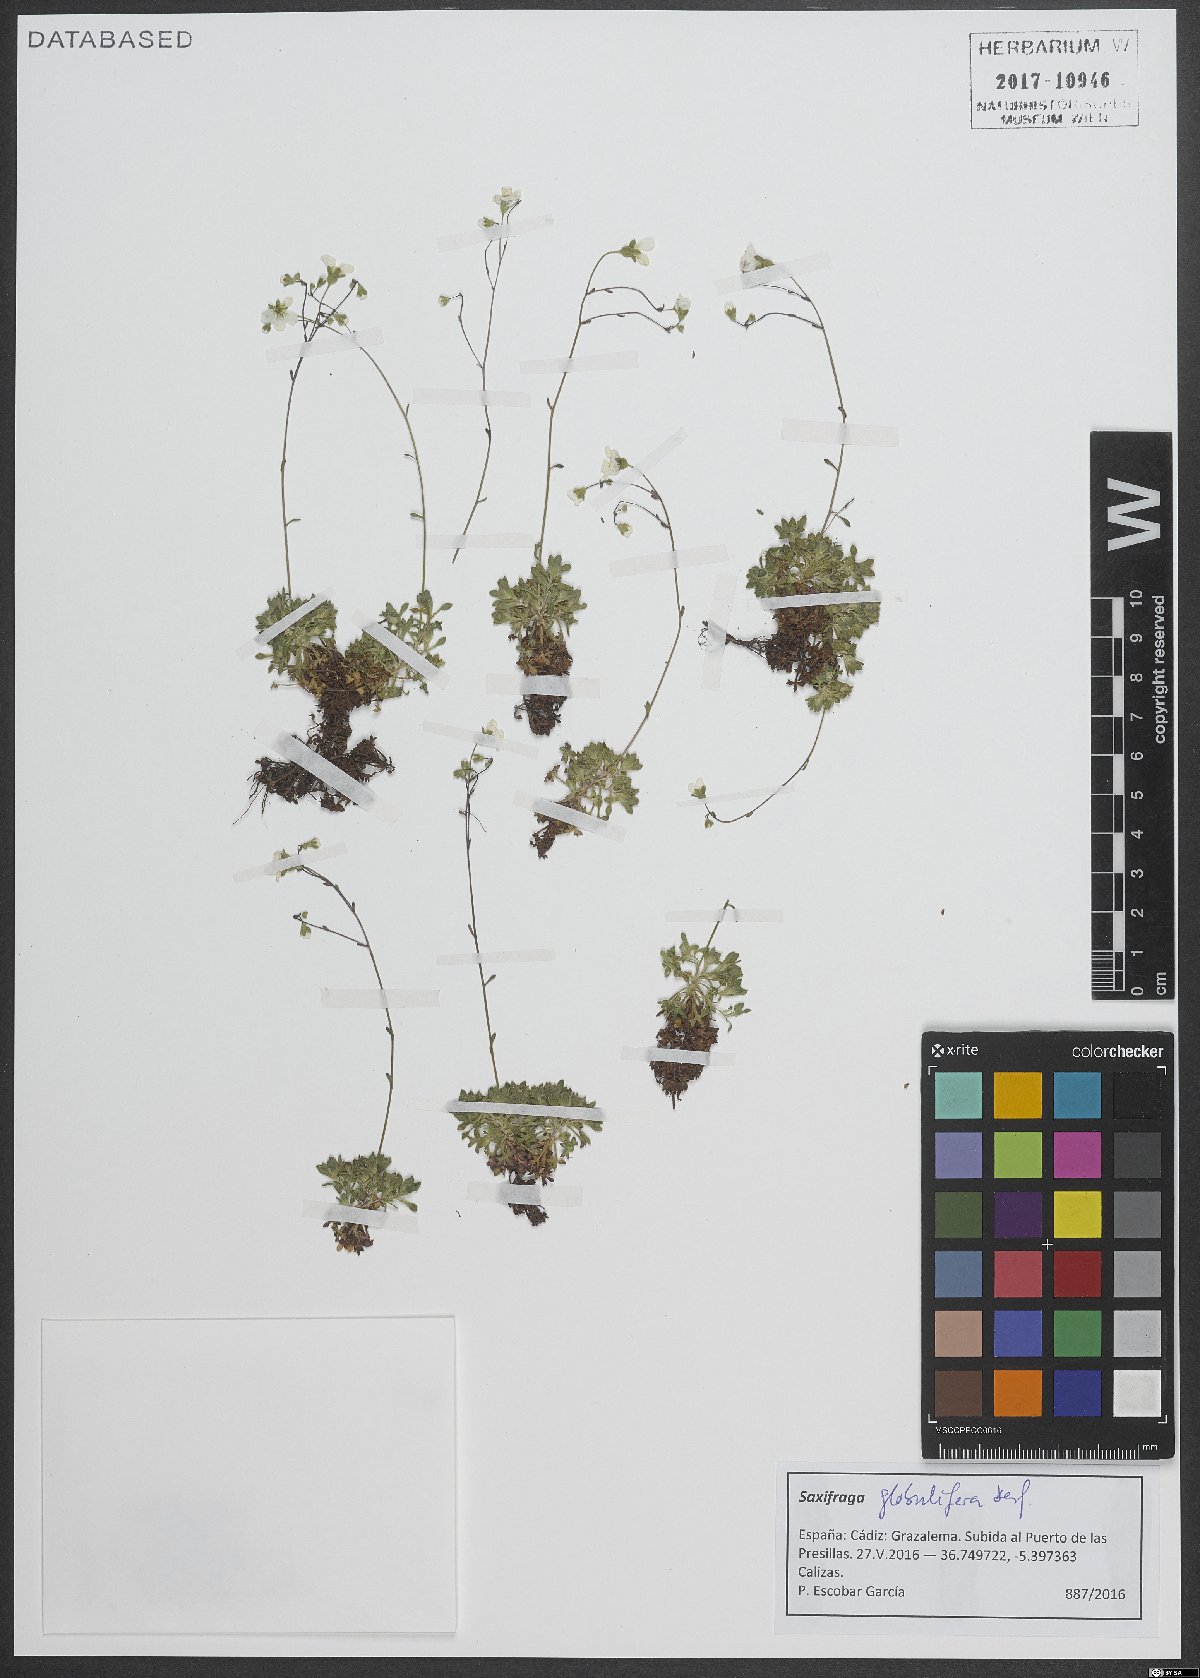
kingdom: Plantae
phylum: Tracheophyta
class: Magnoliopsida
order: Saxifragales
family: Saxifragaceae
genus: Saxifraga
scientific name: Saxifraga globulifera
